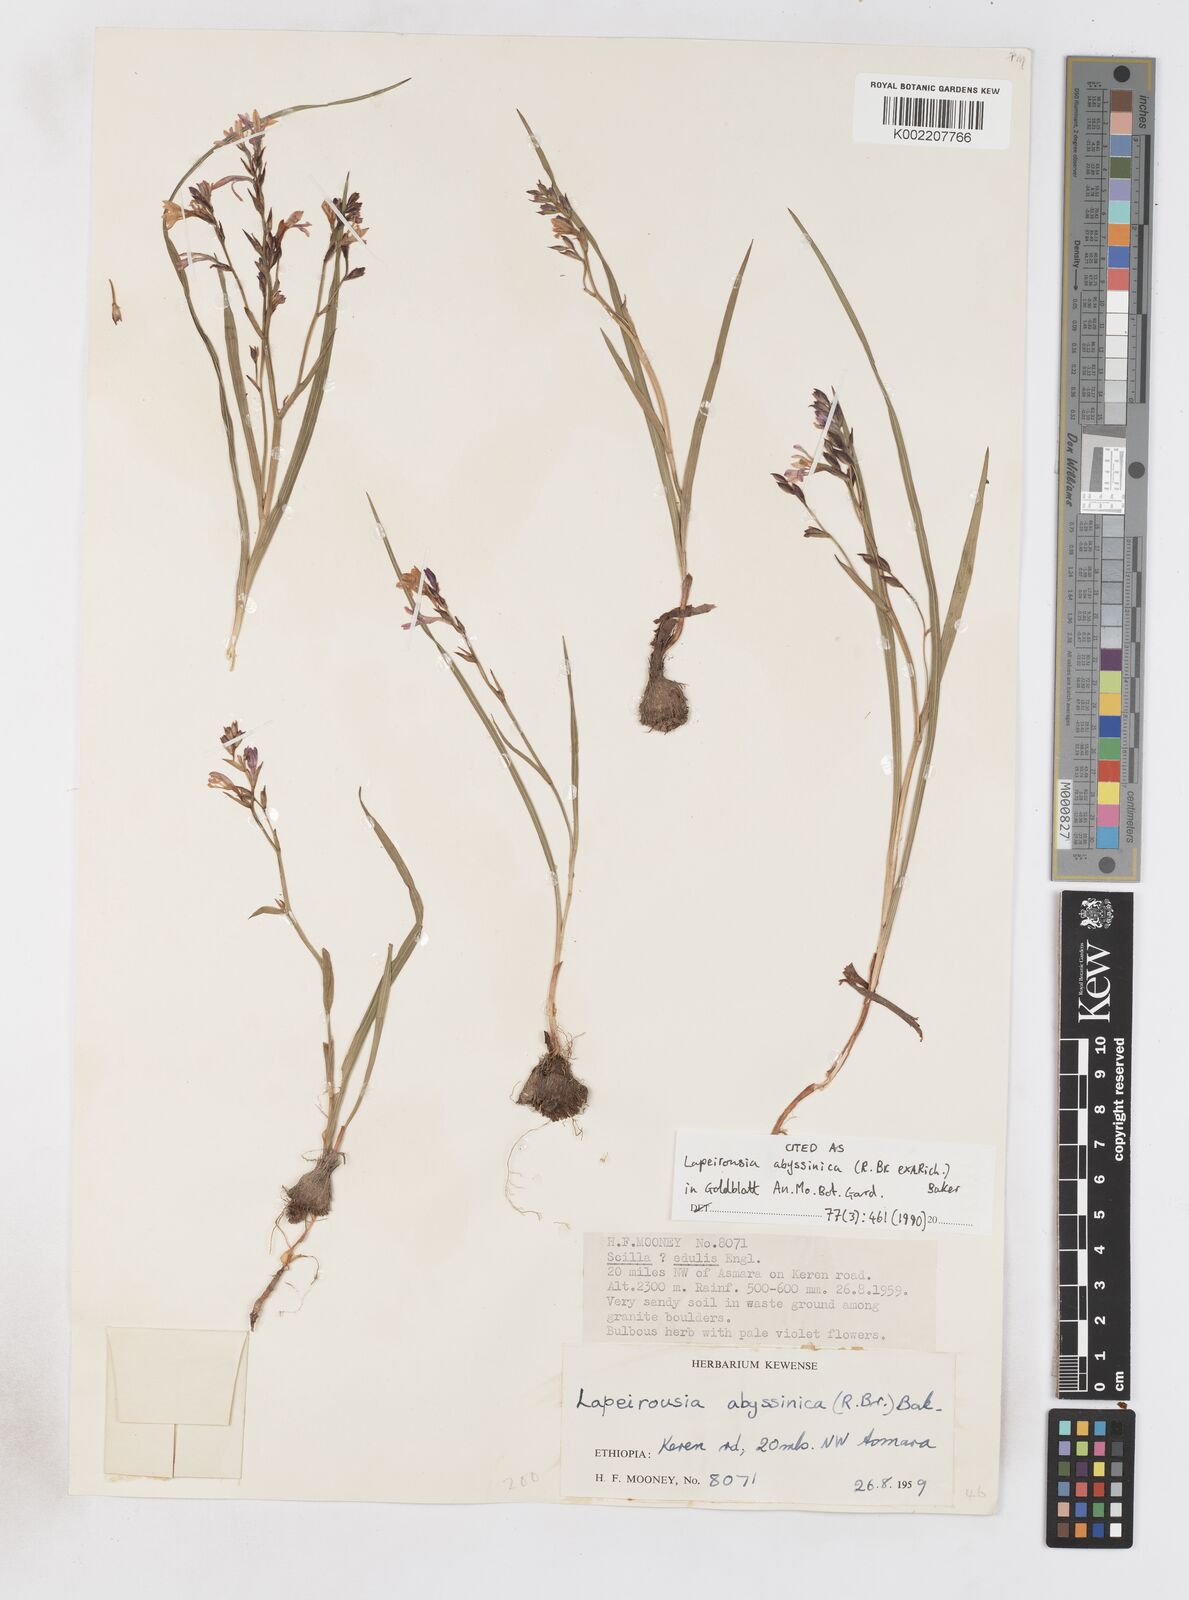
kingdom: Plantae
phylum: Tracheophyta
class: Liliopsida
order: Asparagales
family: Iridaceae
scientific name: Iridaceae
